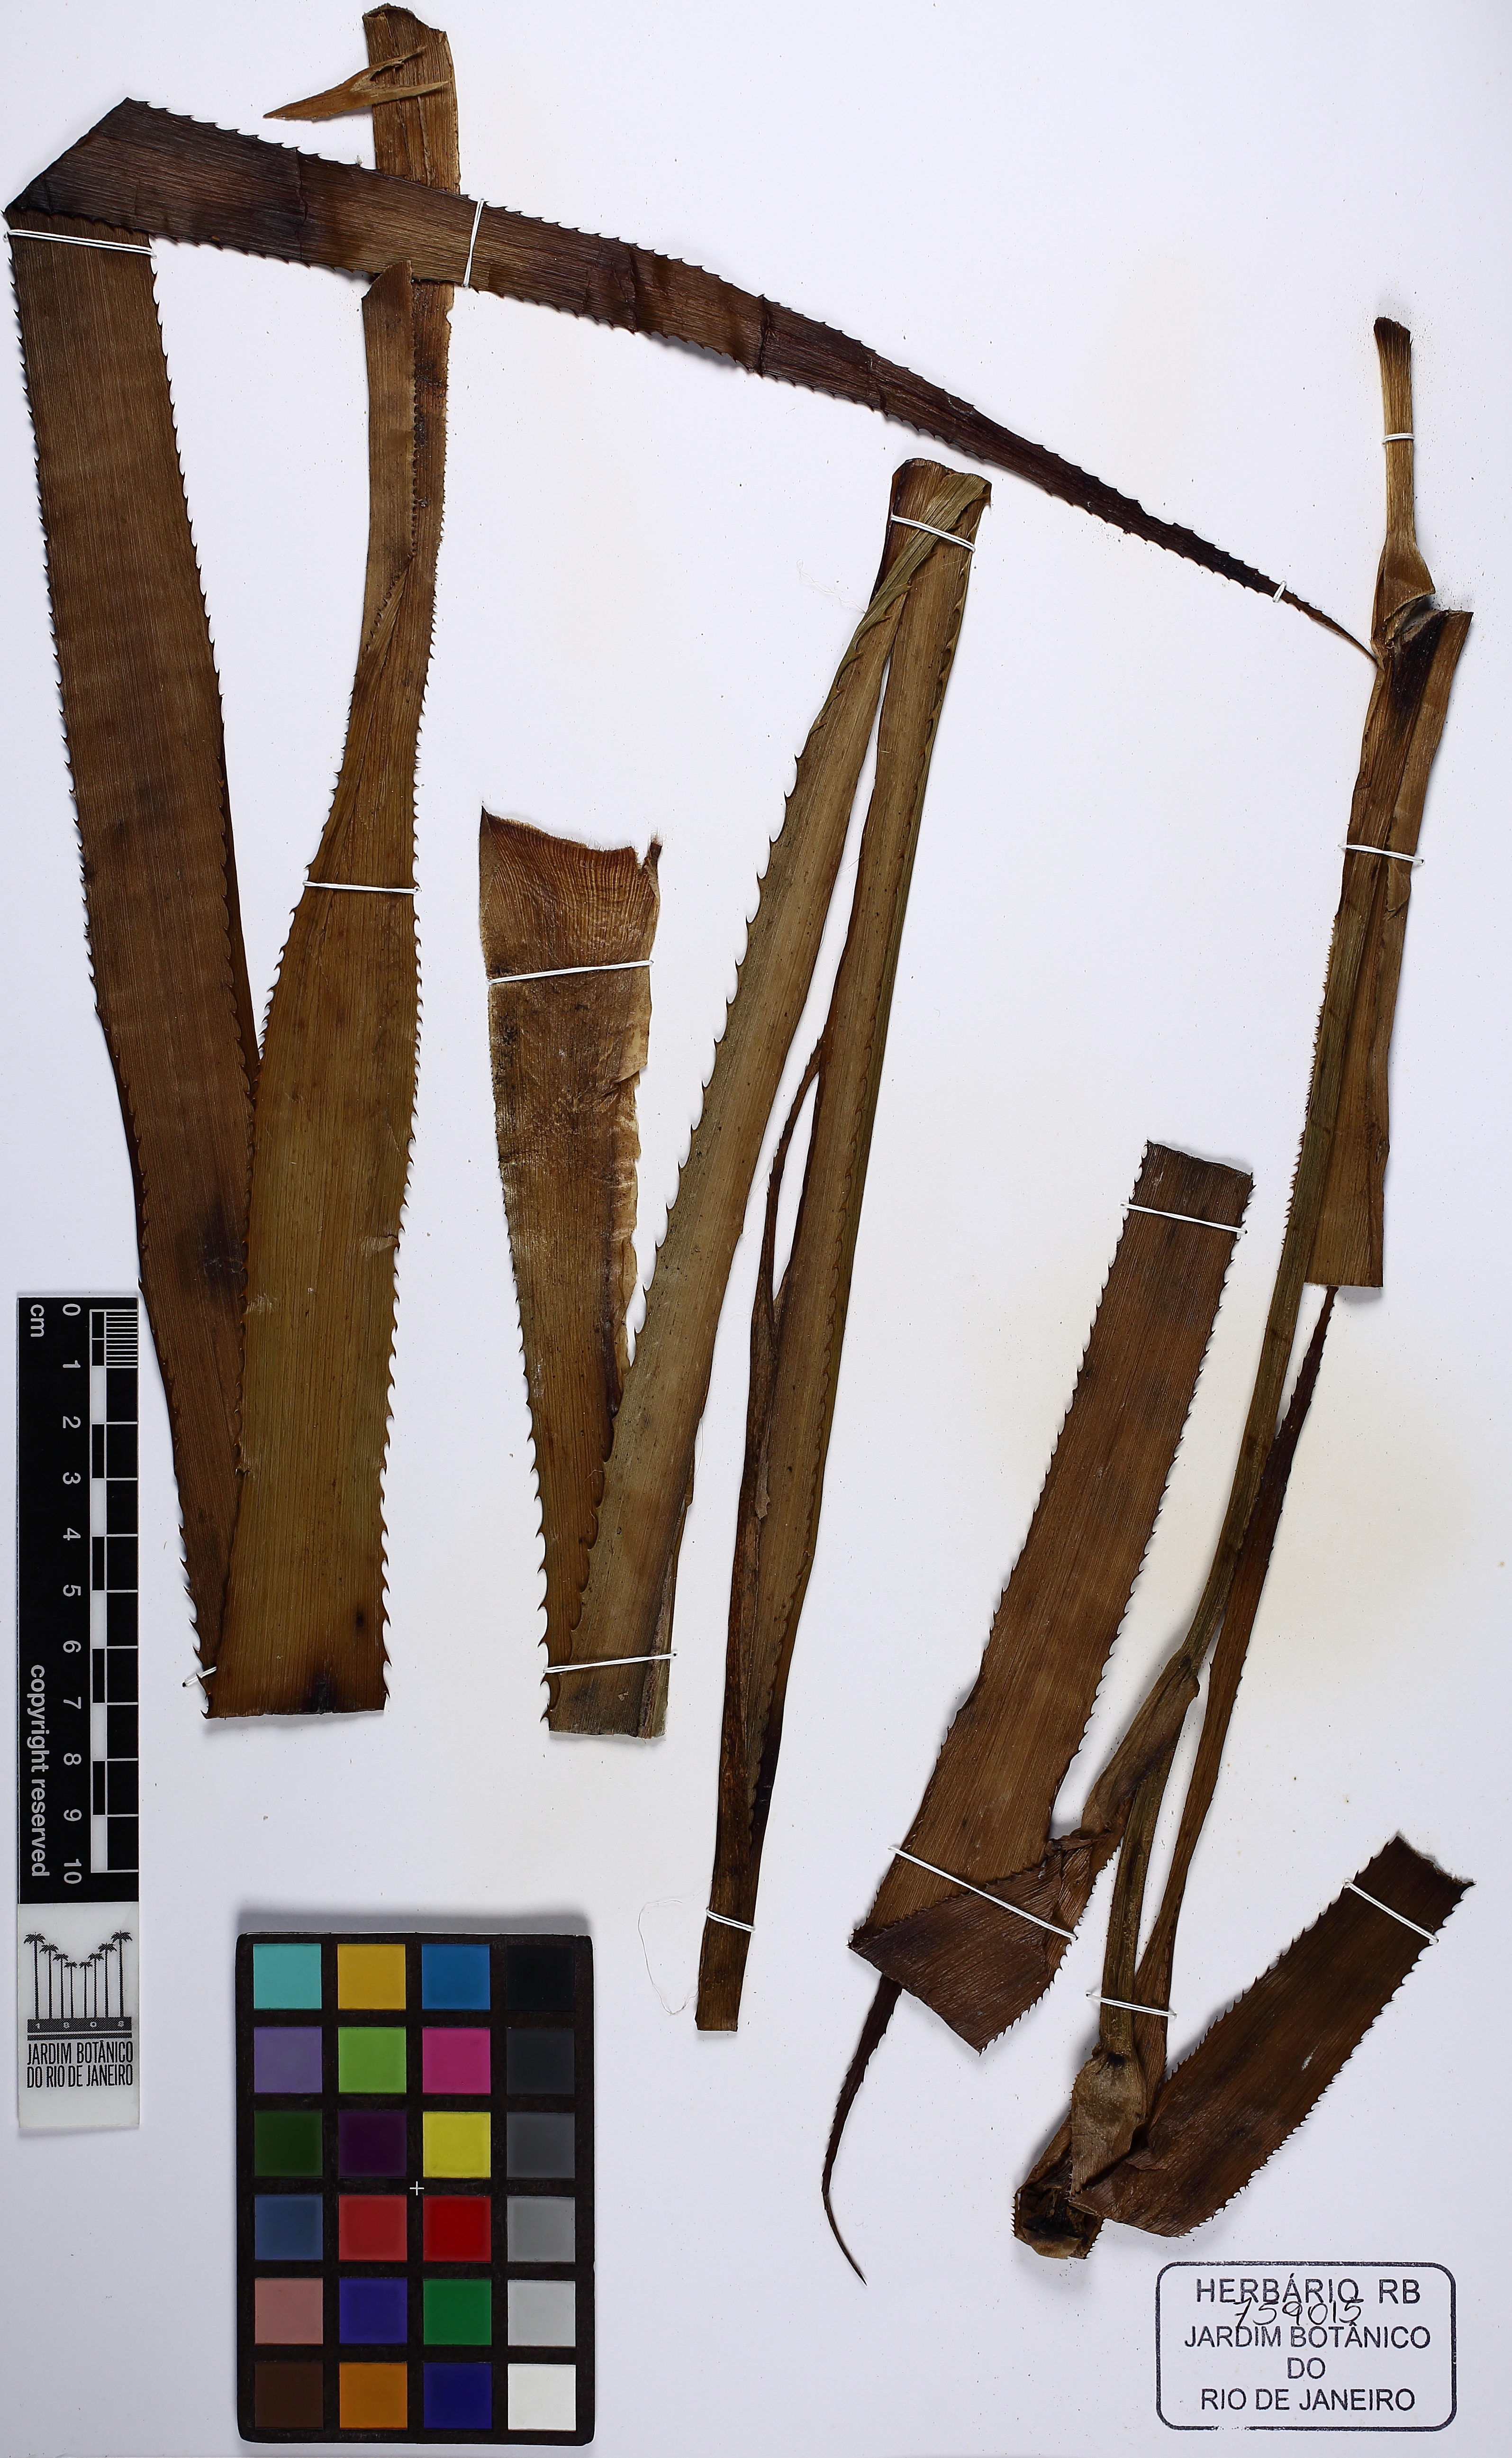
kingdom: Plantae
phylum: Tracheophyta
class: Liliopsida
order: Poales
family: Bromeliaceae
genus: Ananas
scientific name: Ananas comosus
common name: Pineapple
